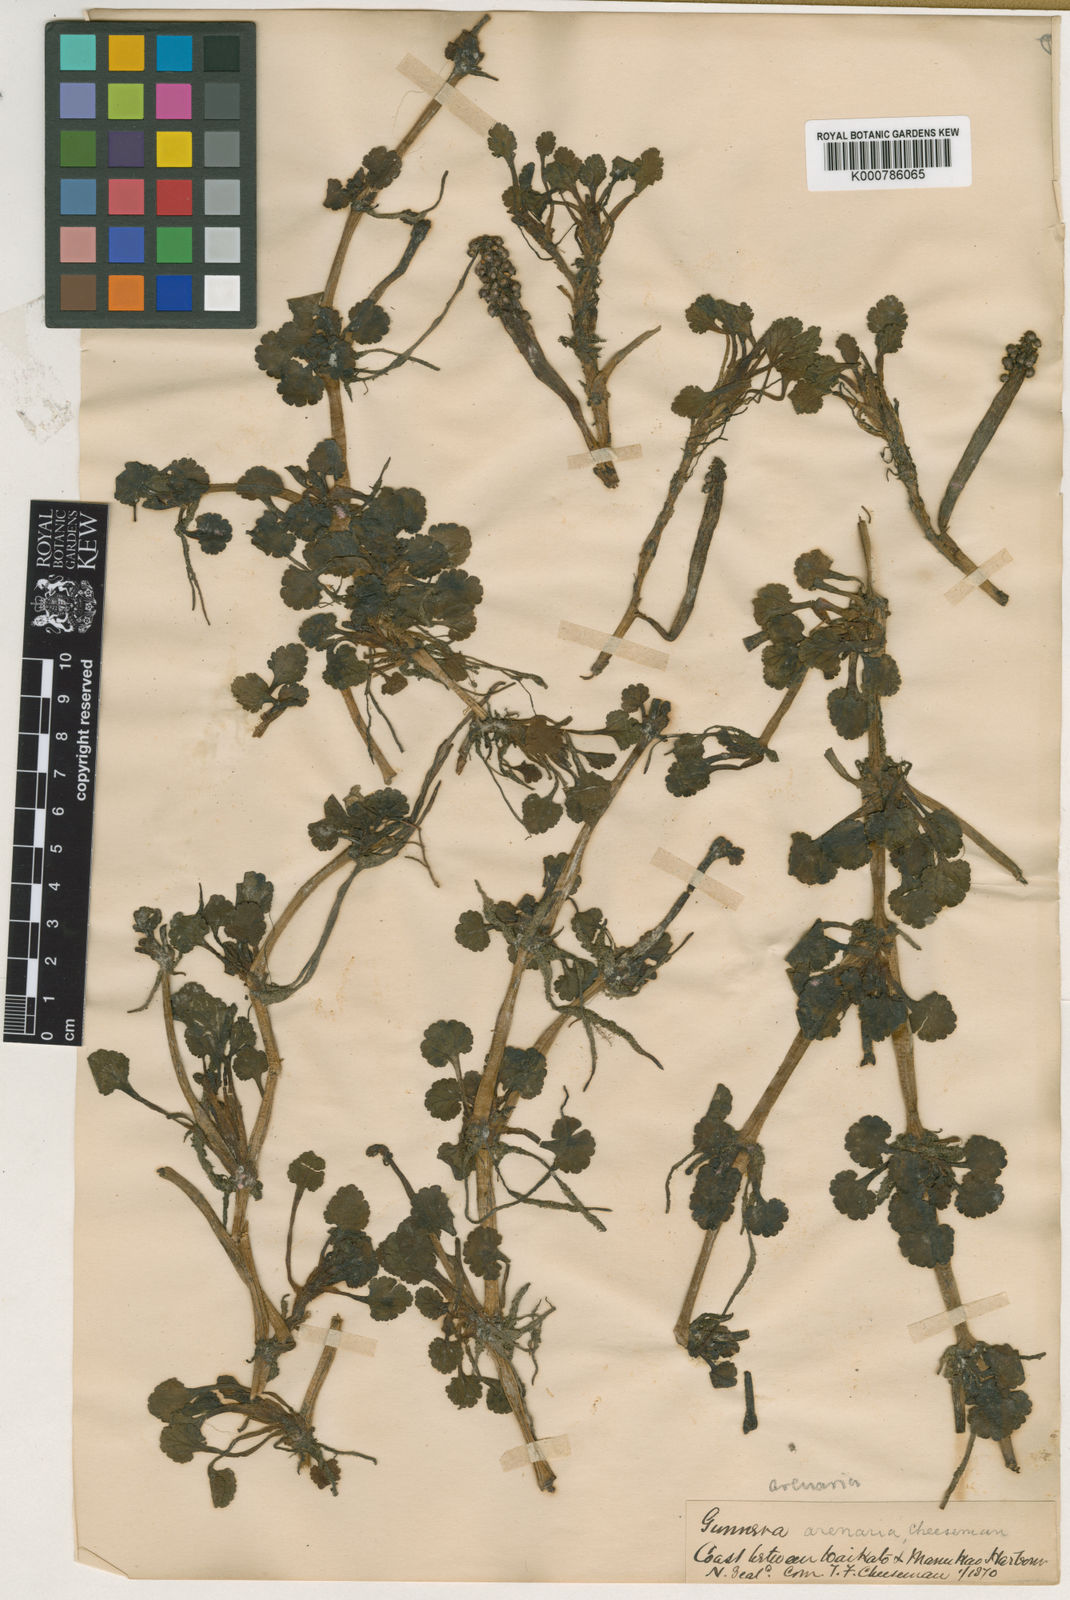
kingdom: Plantae
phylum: Tracheophyta
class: Magnoliopsida
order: Gunnerales
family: Gunneraceae
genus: Gunnera
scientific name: Gunnera dentata
